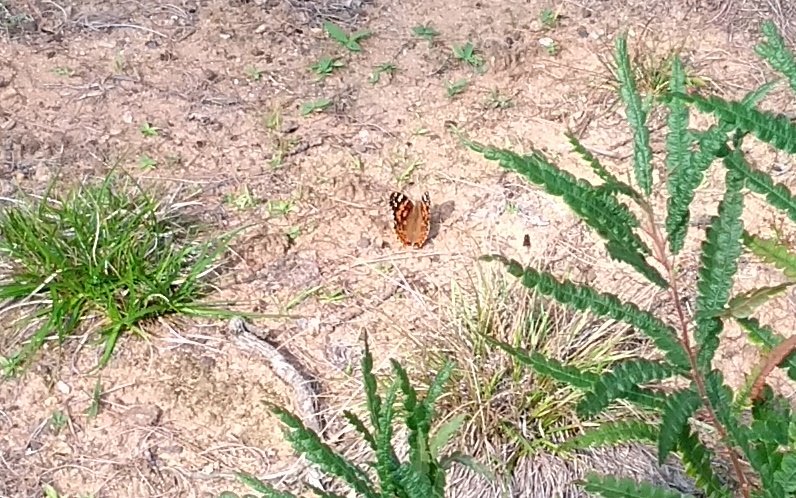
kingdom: Animalia
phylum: Arthropoda
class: Insecta
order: Lepidoptera
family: Nymphalidae
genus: Vanessa
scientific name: Vanessa cardui
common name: Painted Lady
